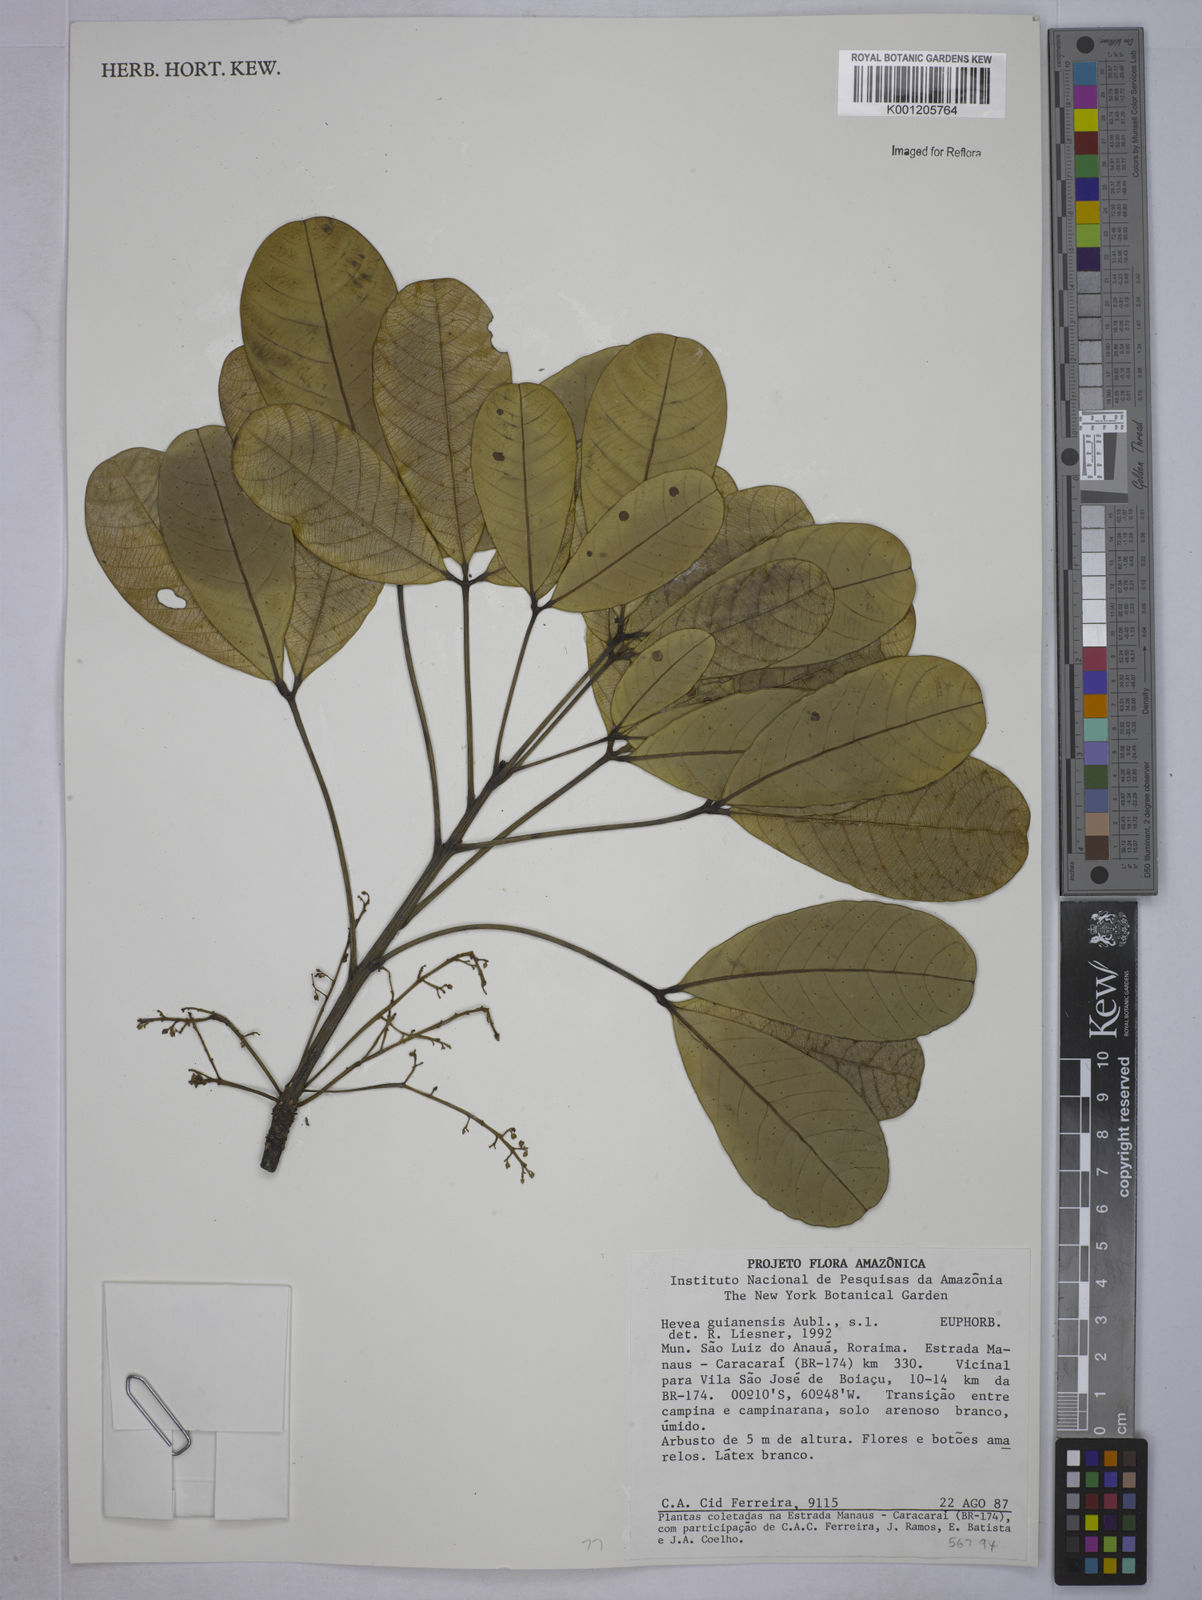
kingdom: Plantae
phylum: Tracheophyta
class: Magnoliopsida
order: Malpighiales
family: Euphorbiaceae
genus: Hevea
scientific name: Hevea guianensis
